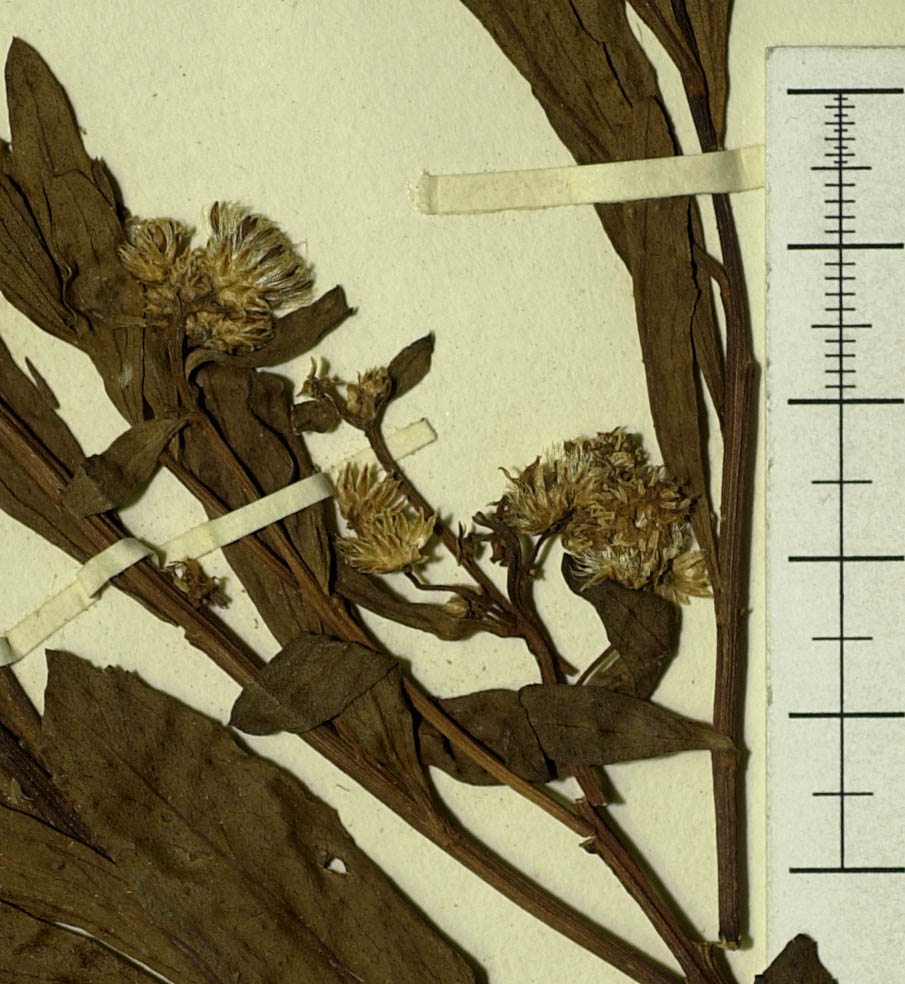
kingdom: Plantae
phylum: Tracheophyta
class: Magnoliopsida
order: Asterales
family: Asteraceae
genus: Baccharis
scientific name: Baccharis salicifolia
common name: Sticky baccharis
